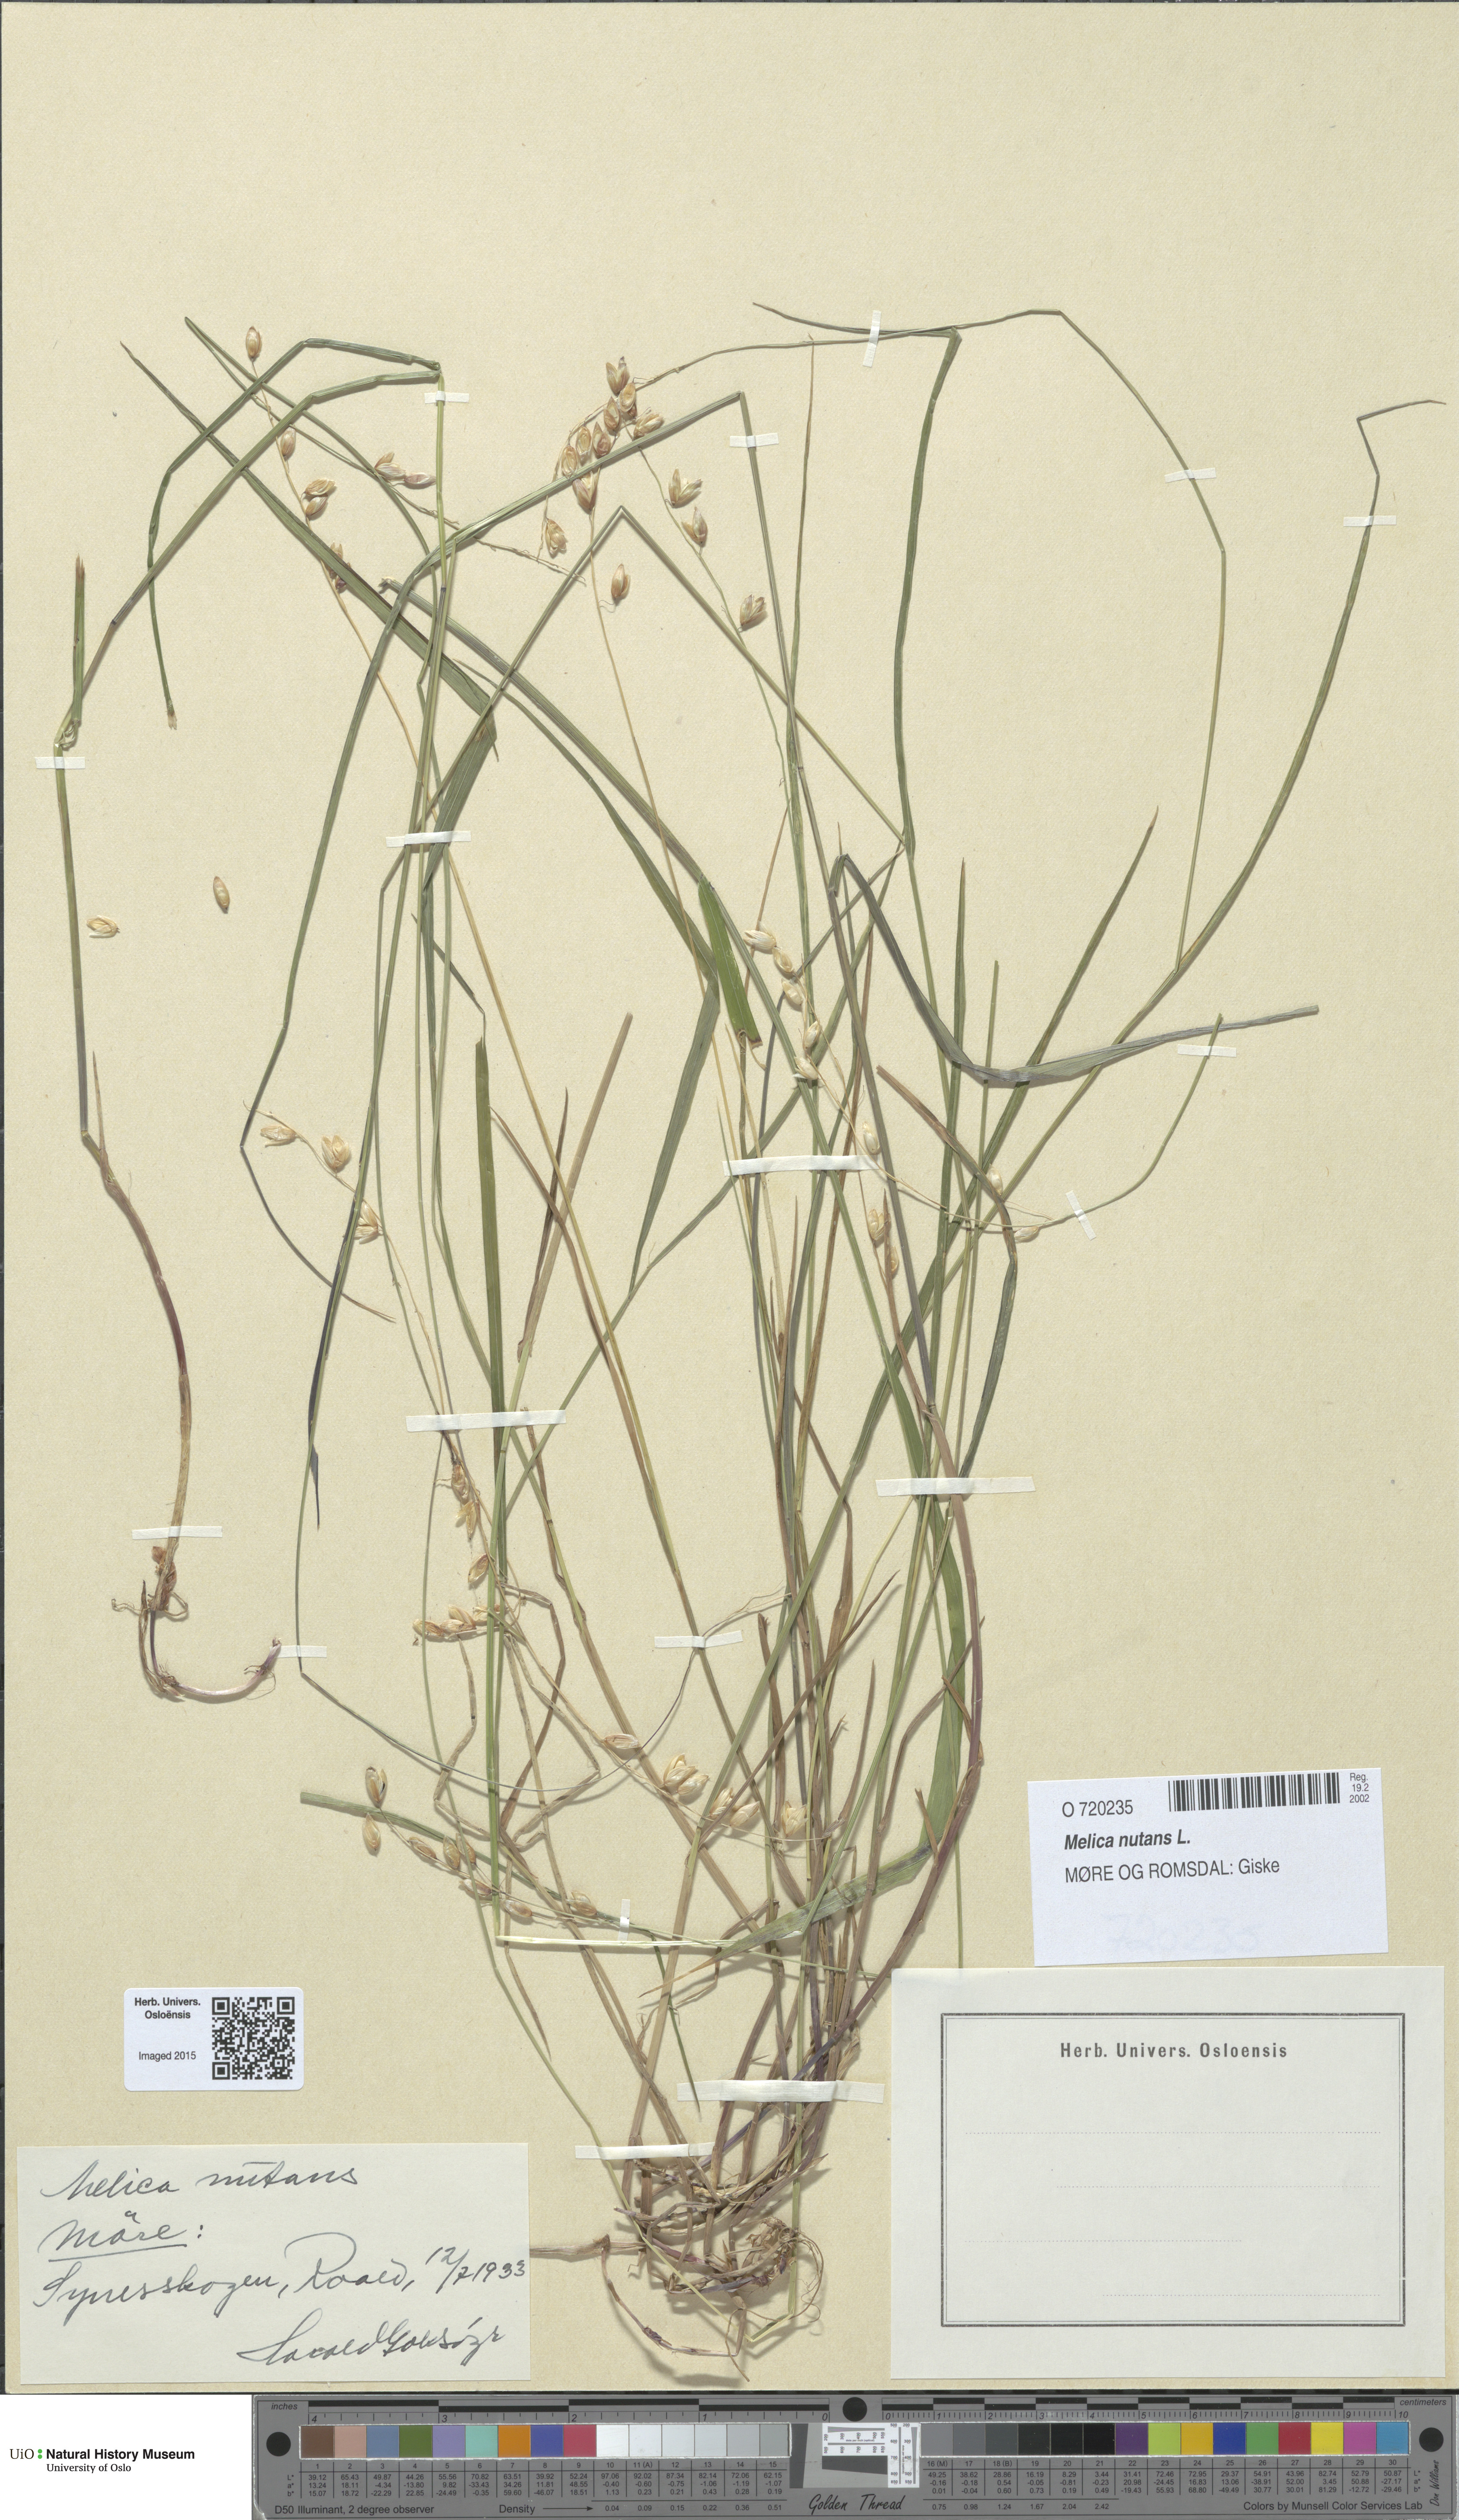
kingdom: Plantae
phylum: Tracheophyta
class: Liliopsida
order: Poales
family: Poaceae
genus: Melica
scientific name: Melica nutans
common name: Mountain melick
